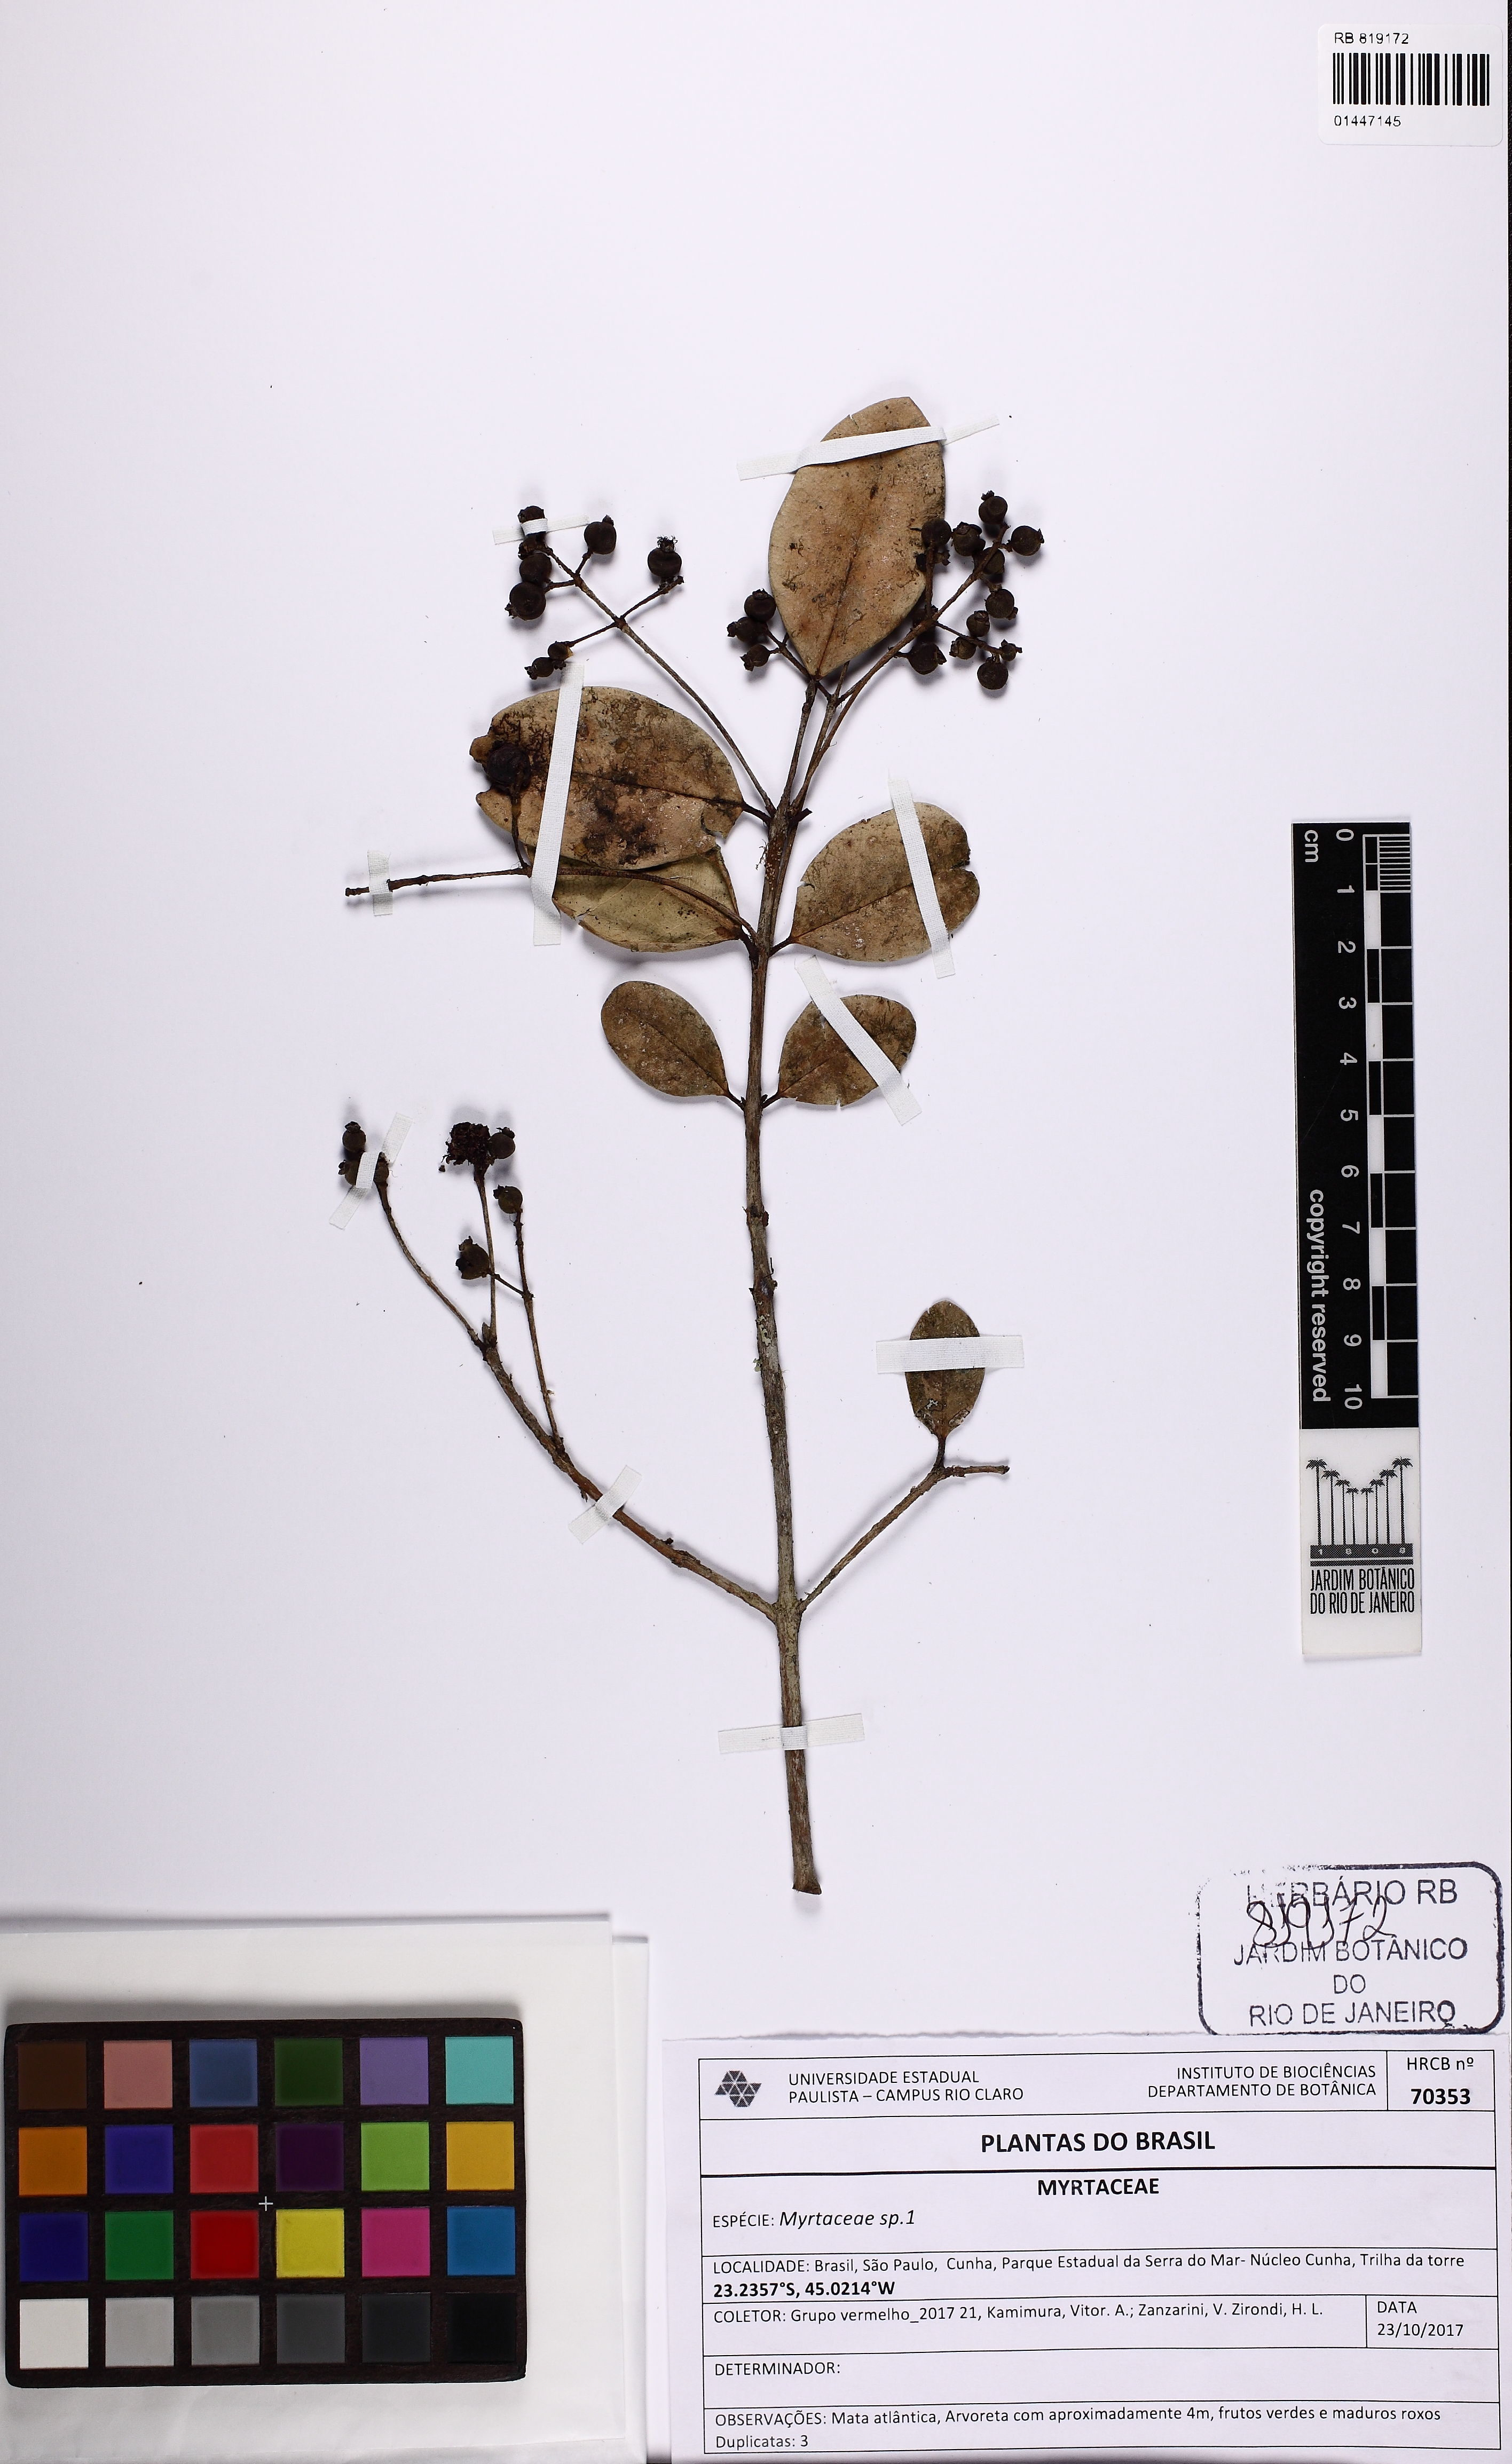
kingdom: Plantae
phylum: Tracheophyta
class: Magnoliopsida
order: Myrtales
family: Myrtaceae
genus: Myrcia
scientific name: Myrcia pubescens
